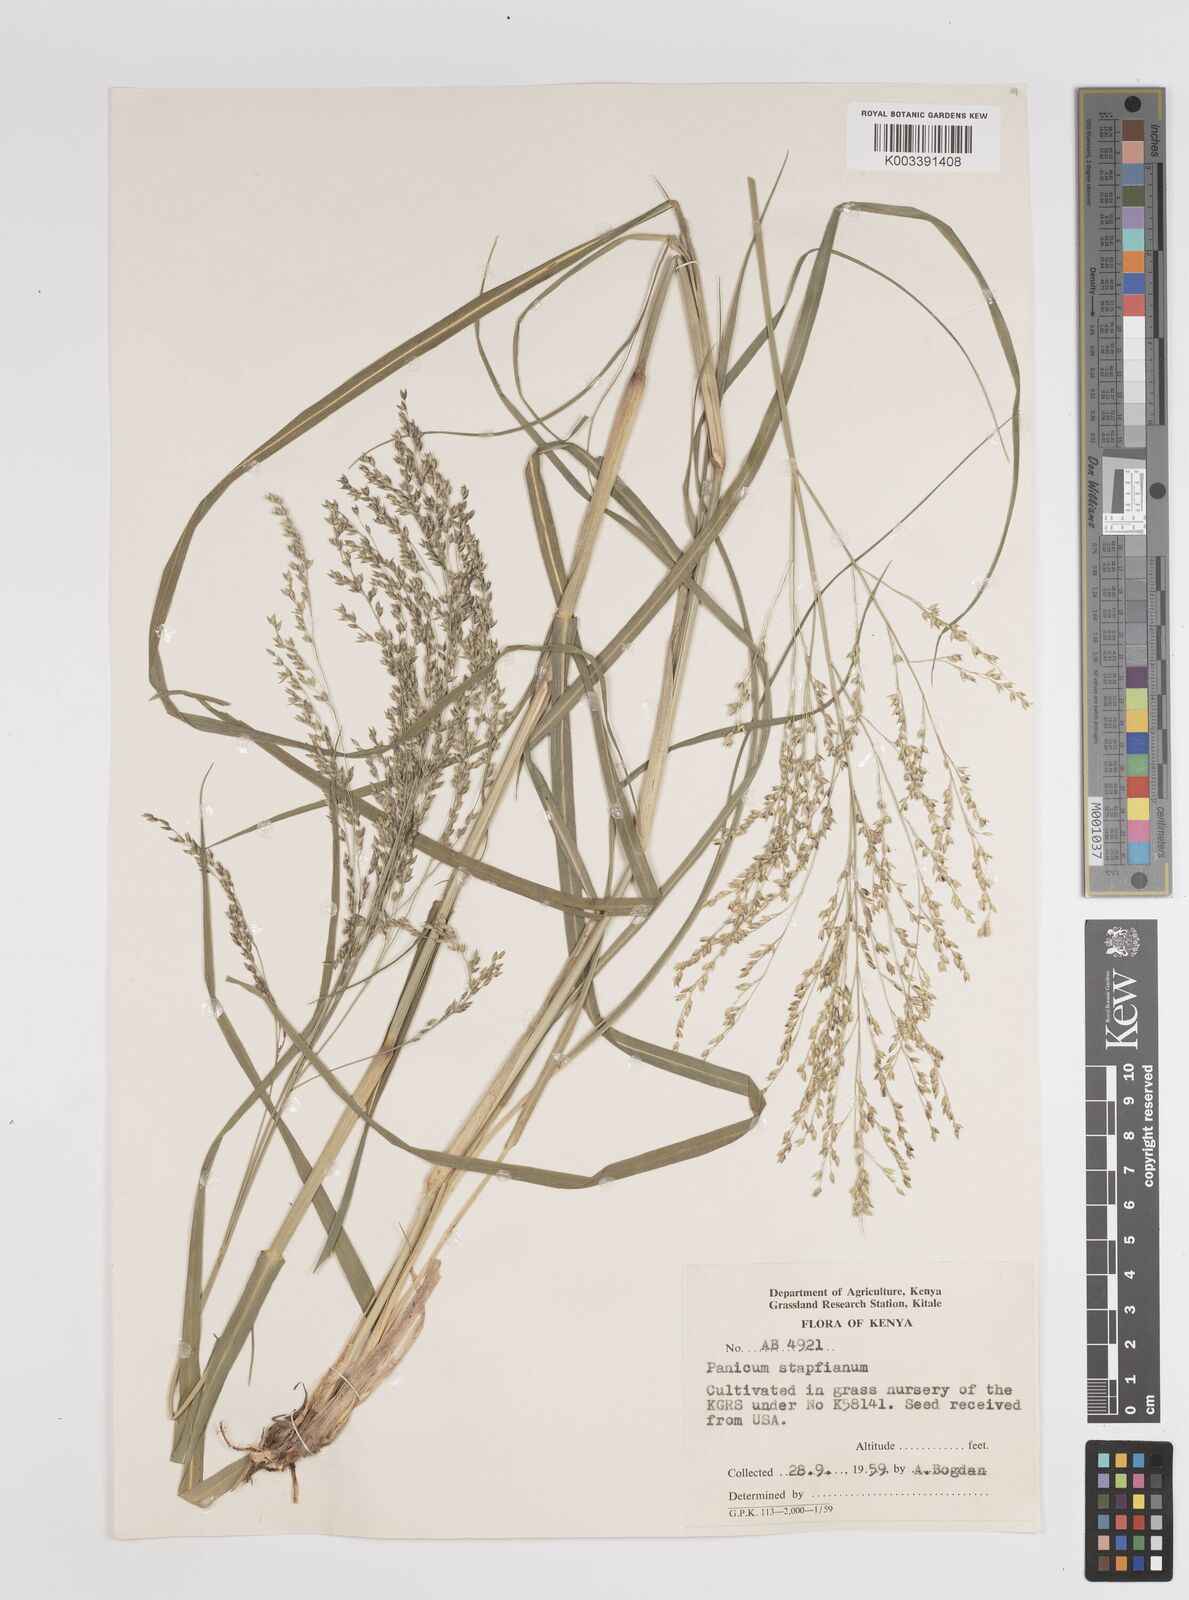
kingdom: Plantae
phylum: Tracheophyta
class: Liliopsida
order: Poales
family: Poaceae
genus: Panicum
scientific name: Panicum
